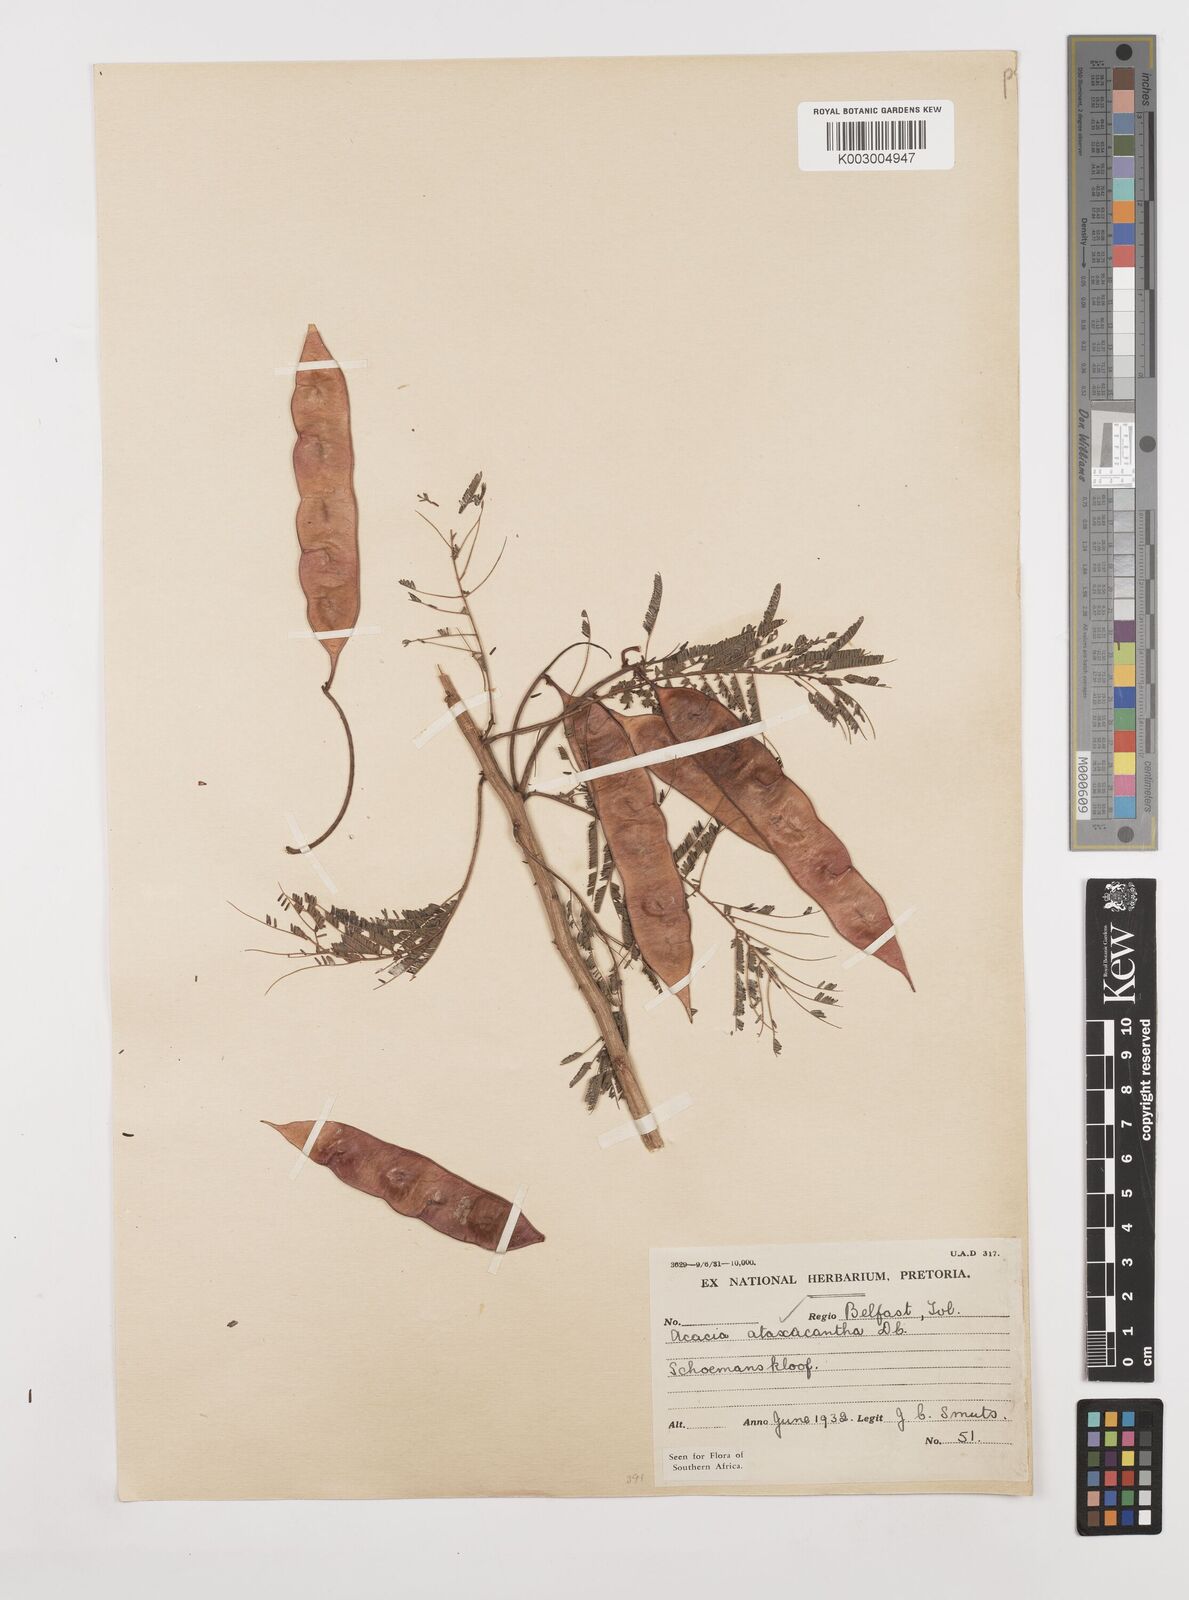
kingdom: Plantae
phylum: Tracheophyta
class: Magnoliopsida
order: Fabales
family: Fabaceae
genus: Senegalia
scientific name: Senegalia ataxacantha
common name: Flame acacia
